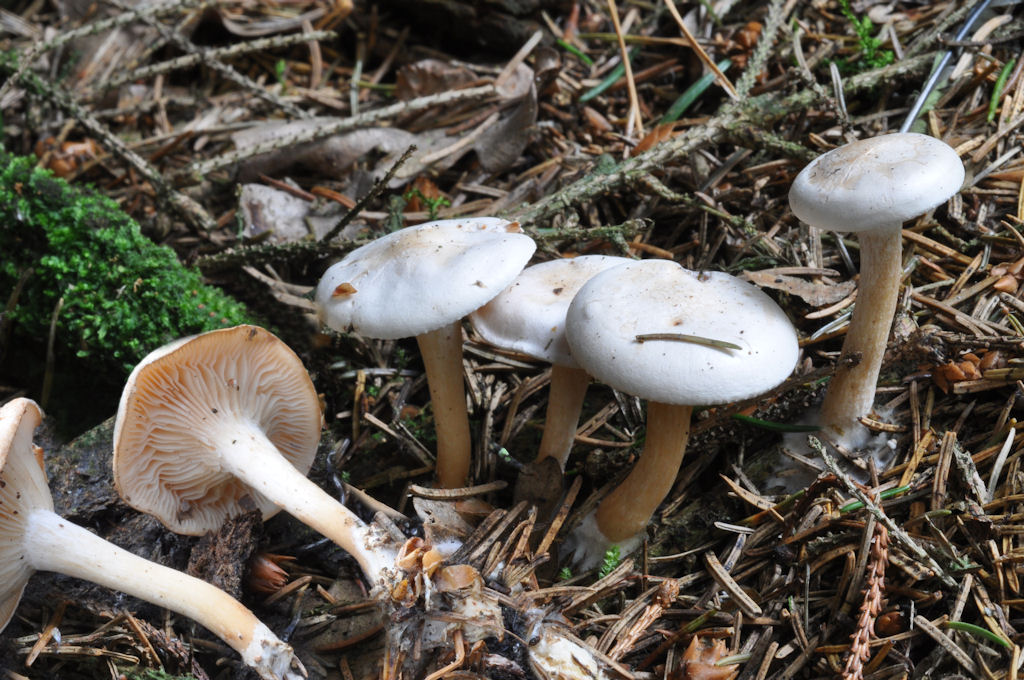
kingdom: Fungi
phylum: Basidiomycota
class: Agaricomycetes
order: Agaricales
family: Tricholomataceae
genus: Leucocybe
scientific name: Leucocybe candicans
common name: kridt-tragthat
